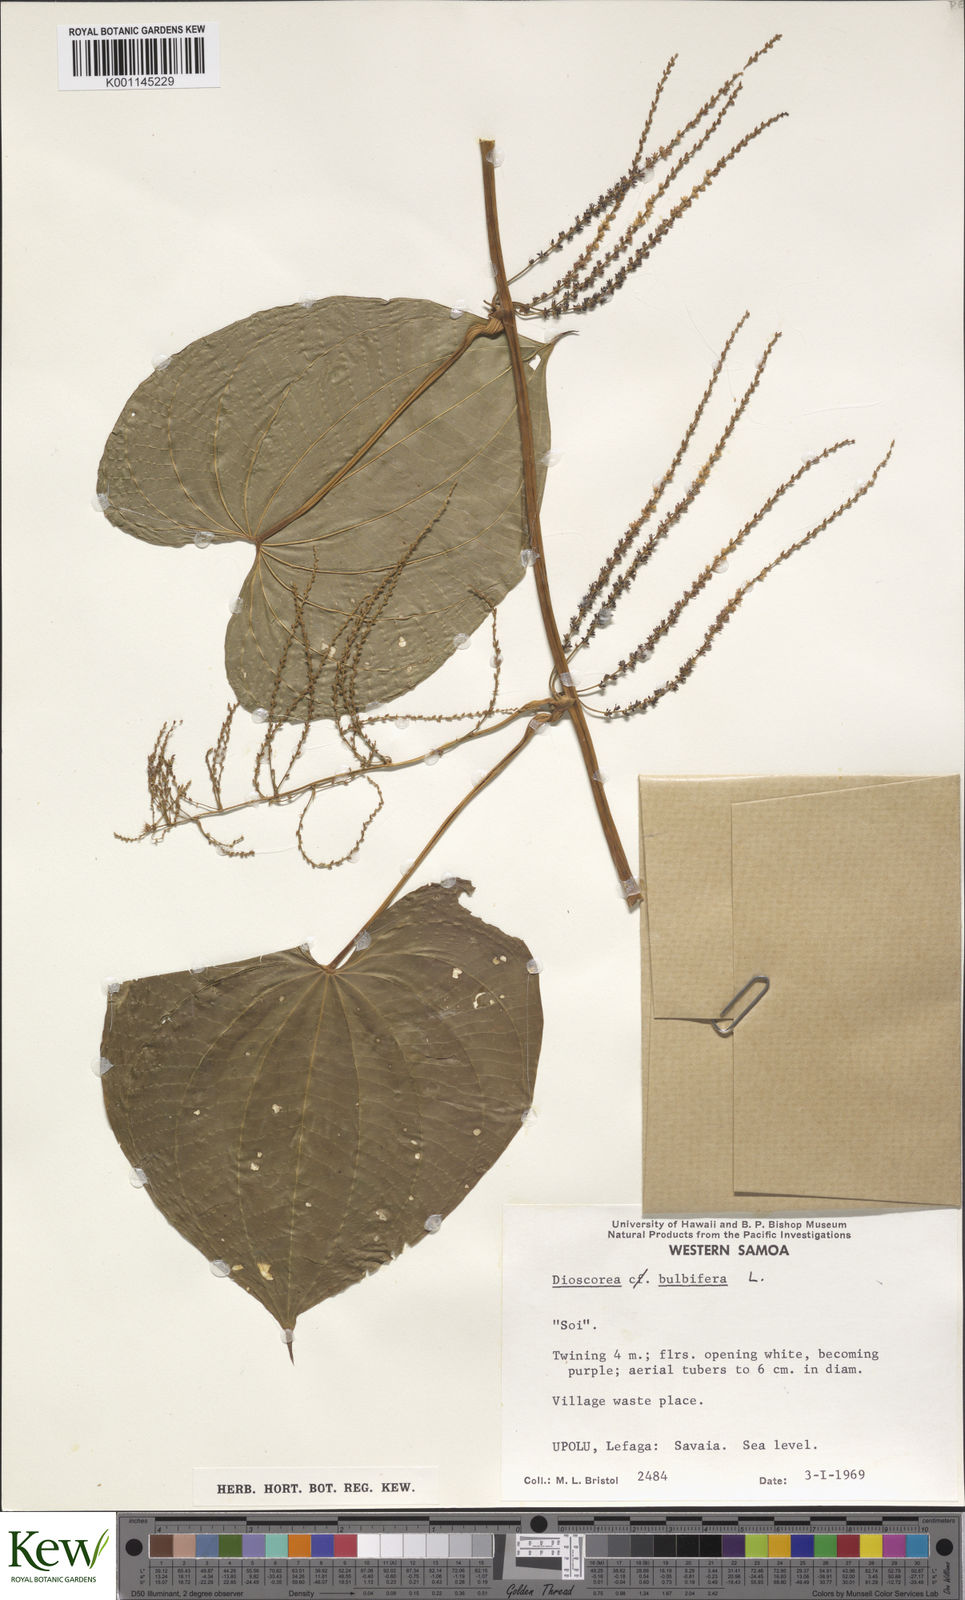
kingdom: Plantae
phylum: Tracheophyta
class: Liliopsida
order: Dioscoreales
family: Dioscoreaceae
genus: Dioscorea
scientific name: Dioscorea bulbifera
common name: Air yam
